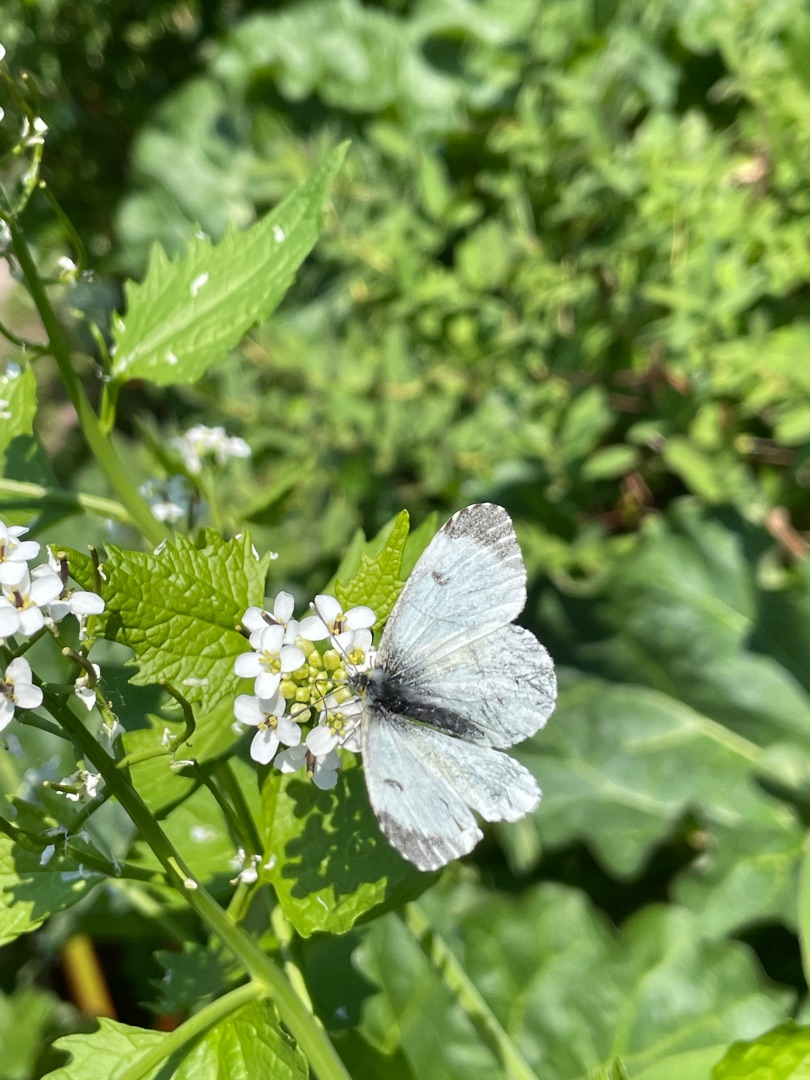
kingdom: Animalia
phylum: Arthropoda
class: Insecta
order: Lepidoptera
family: Pieridae
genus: Anthocharis
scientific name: Anthocharis cardamines
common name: Aurora
